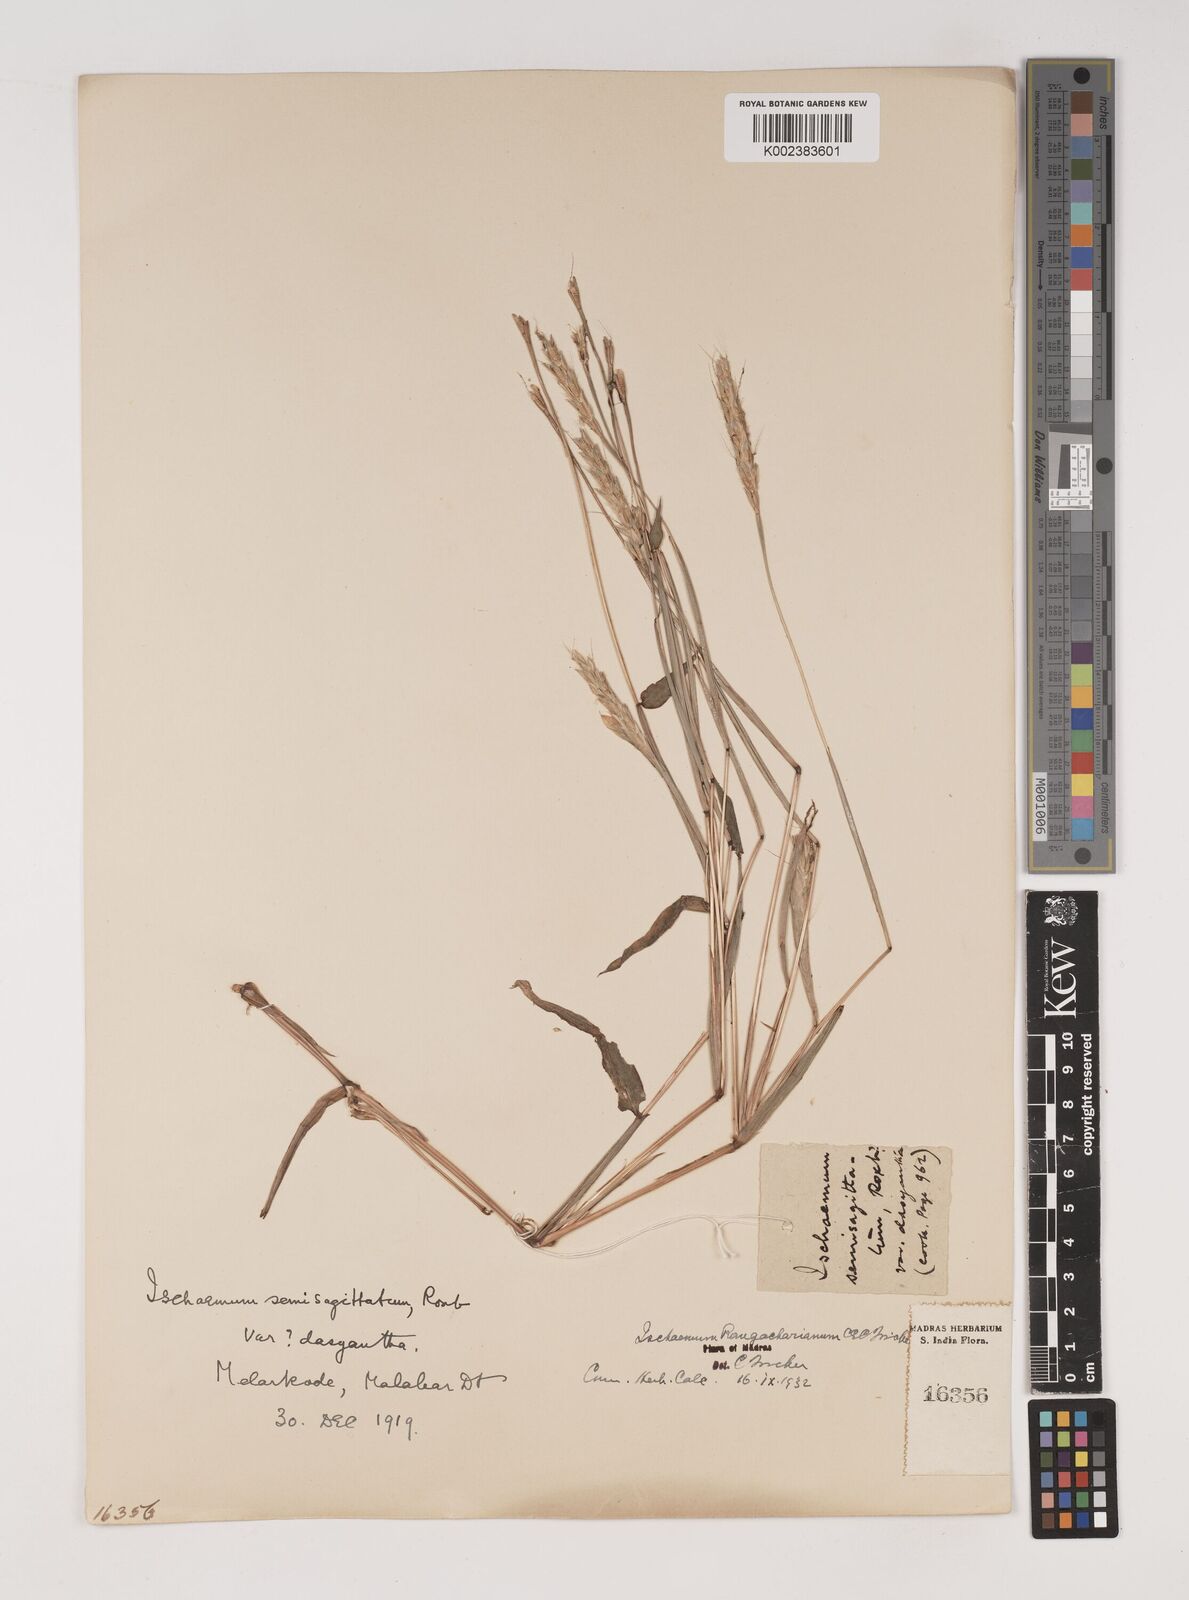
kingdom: Plantae
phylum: Tracheophyta
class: Liliopsida
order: Poales
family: Poaceae
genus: Ischaemum
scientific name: Ischaemum rangacharianum
